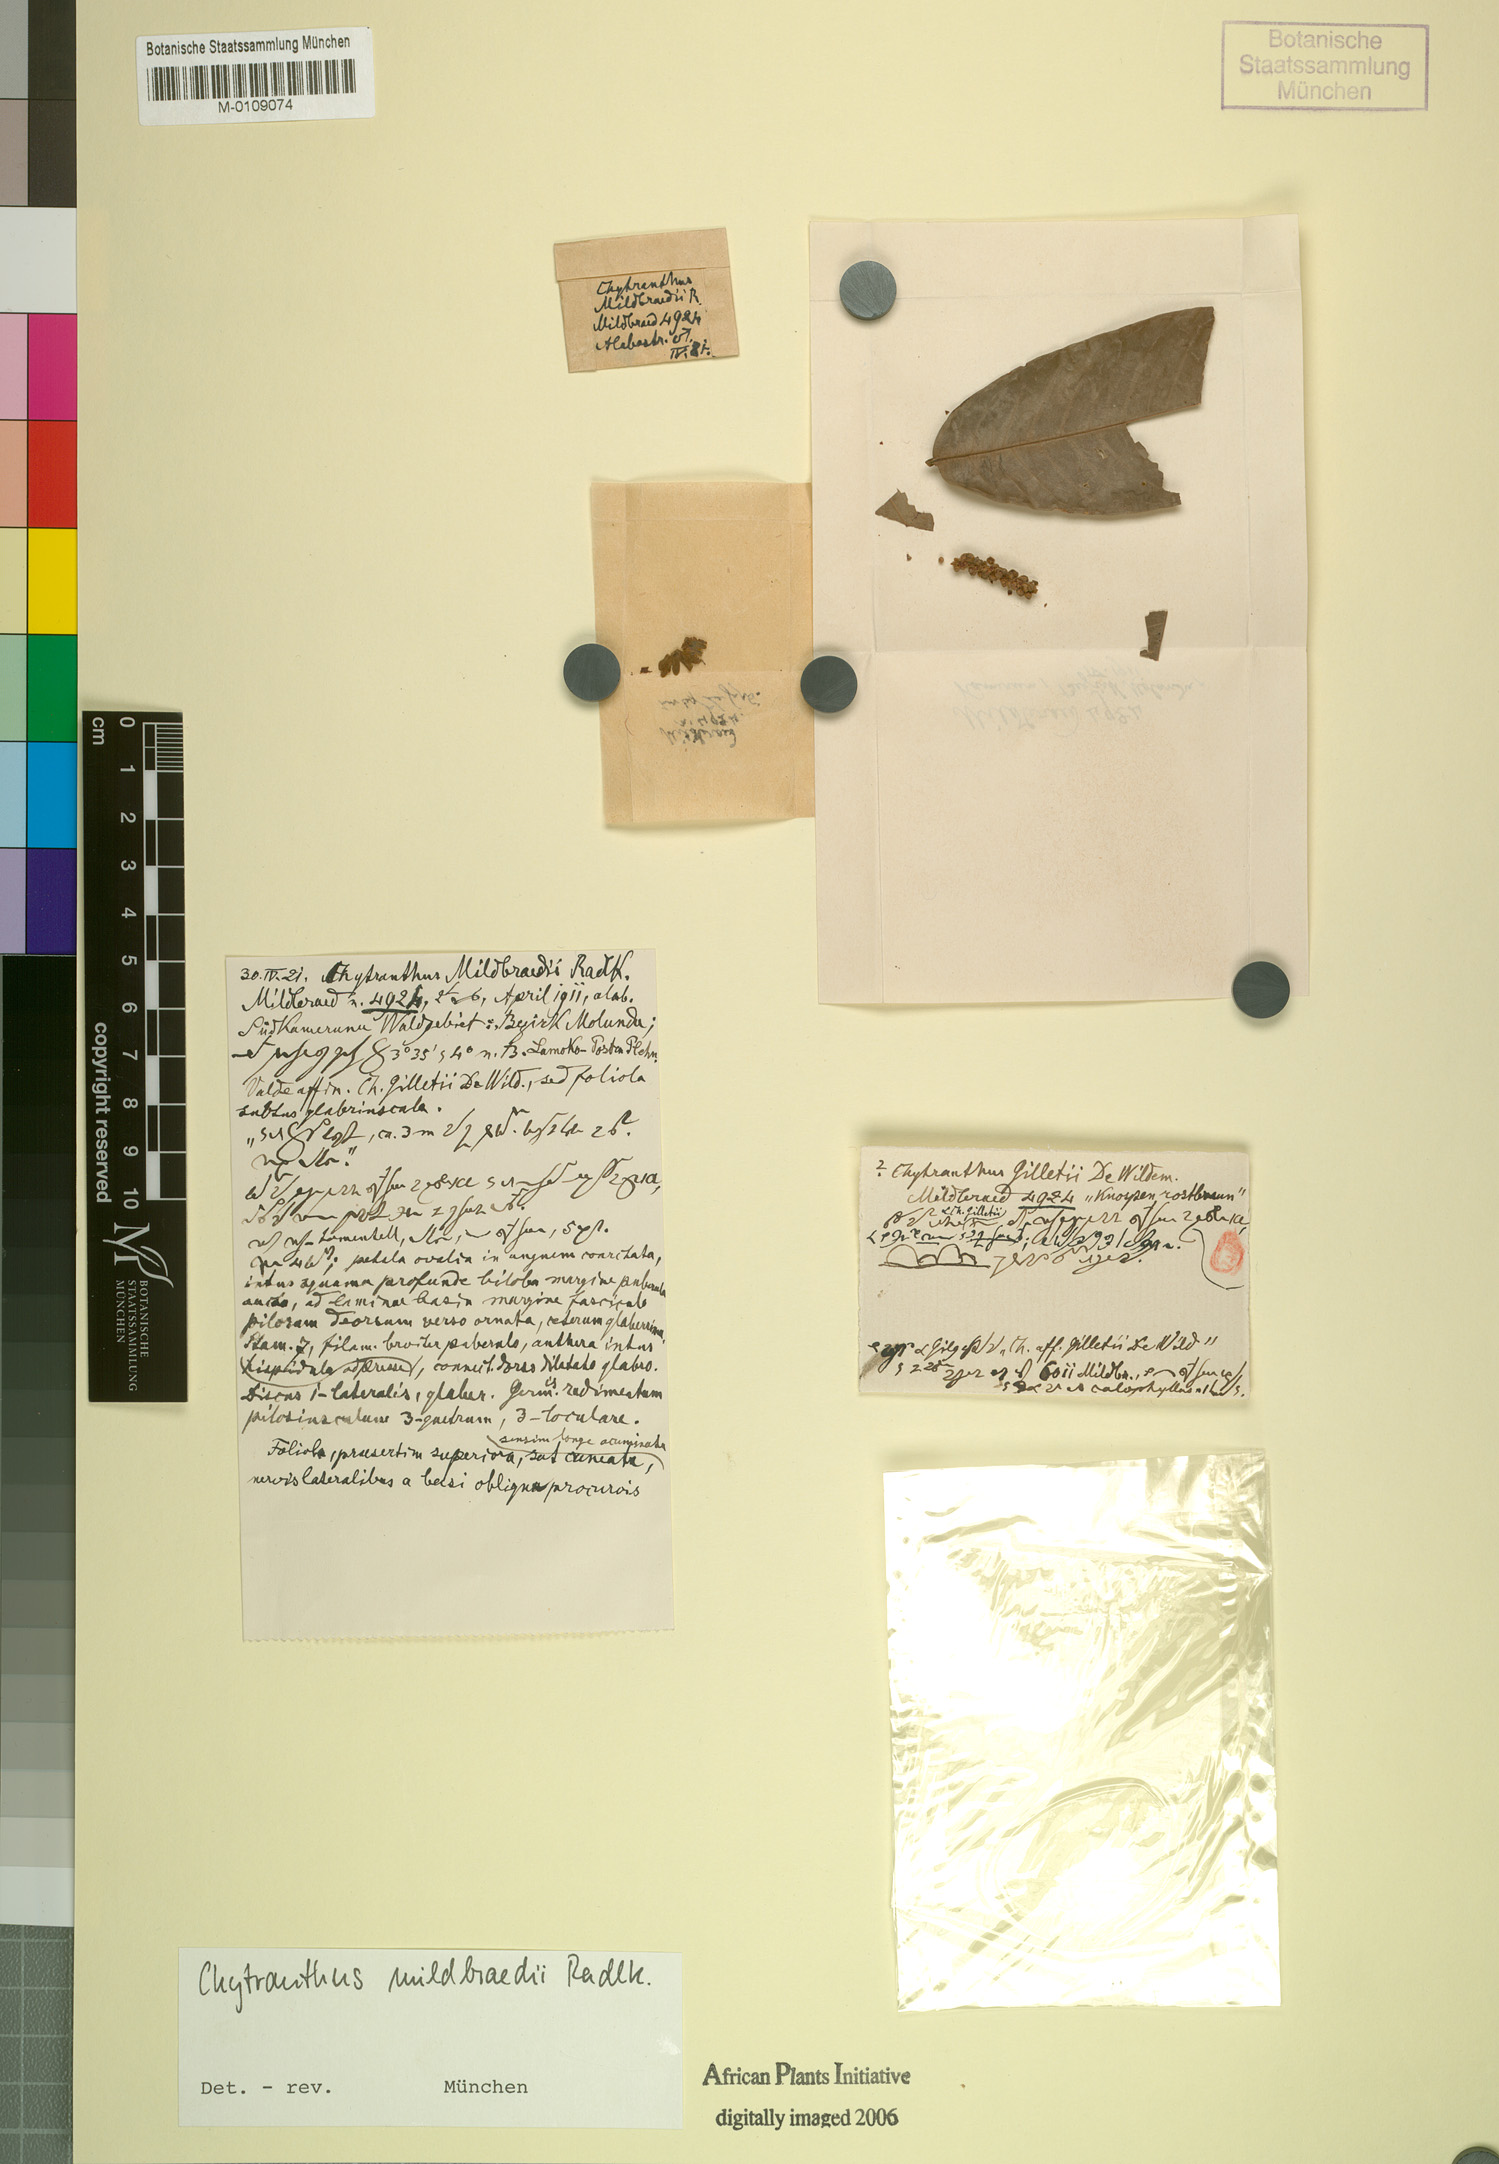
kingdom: Plantae
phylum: Tracheophyta
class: Magnoliopsida
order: Sapindales
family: Sapindaceae
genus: Chytranthus
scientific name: Chytranthus gilletii
